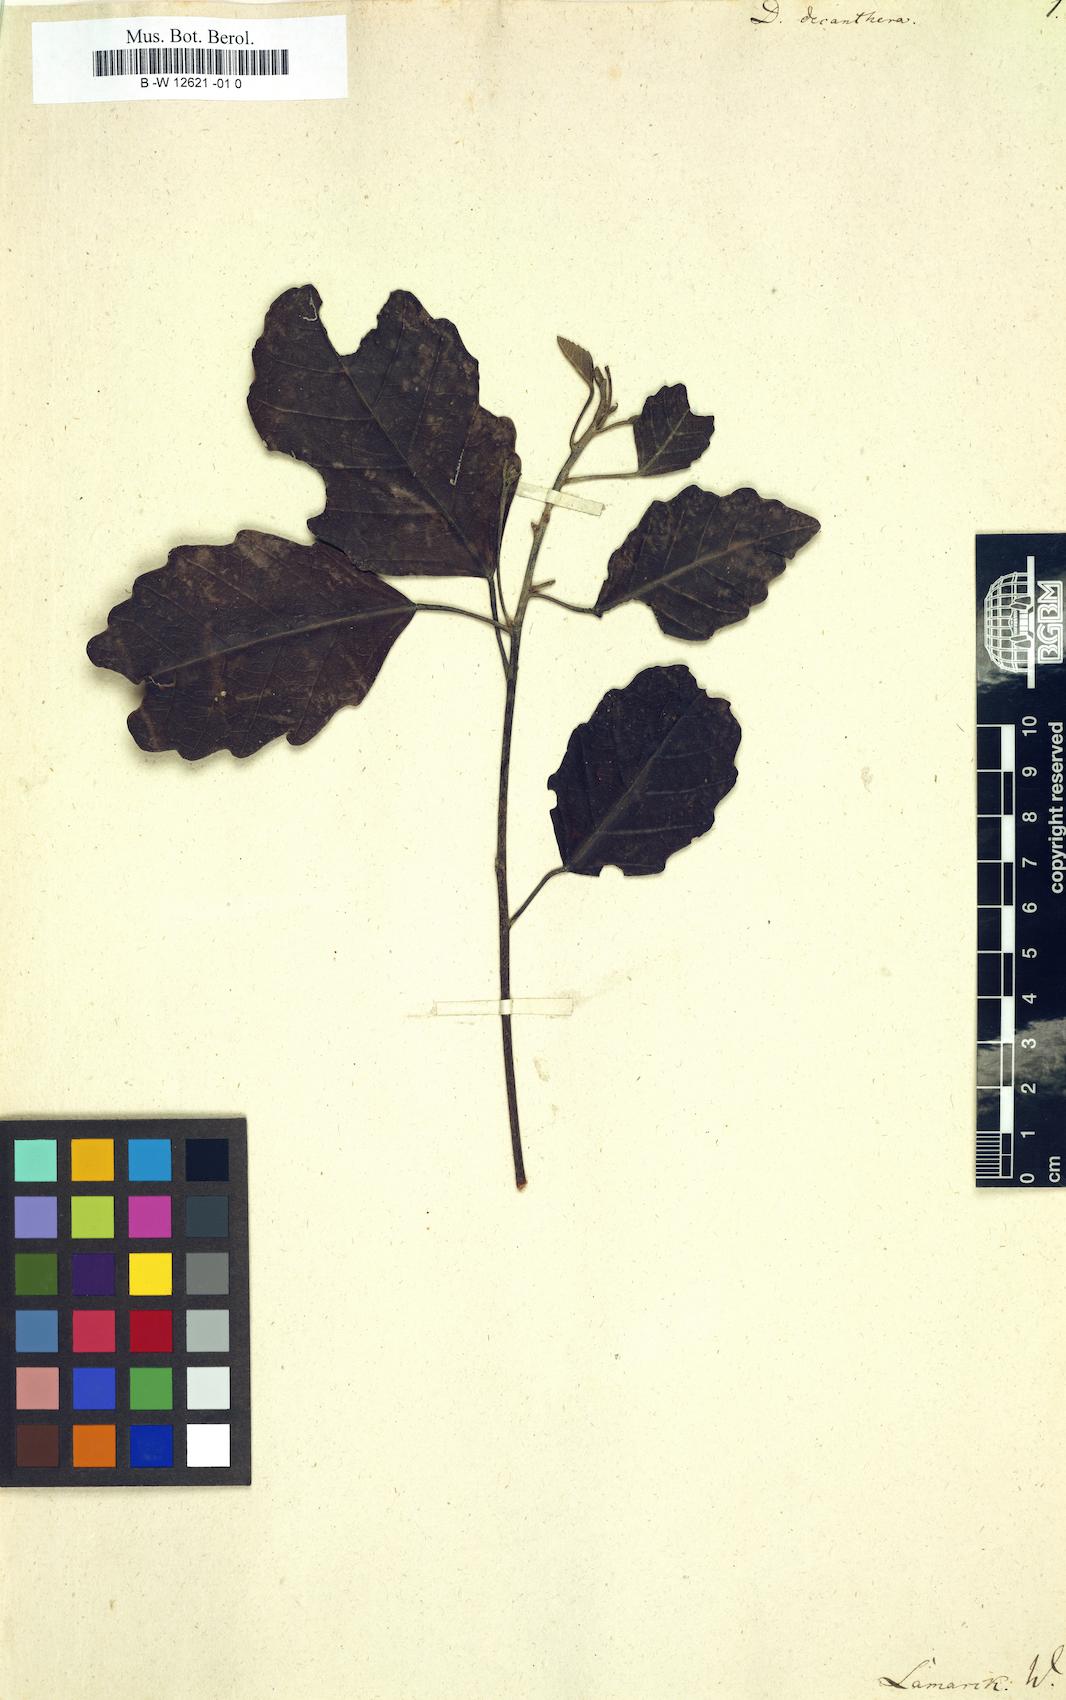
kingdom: Plantae
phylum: Tracheophyta
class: Magnoliopsida
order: Malvales
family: Malvaceae
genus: Dombeya
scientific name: Dombeya decanthera
